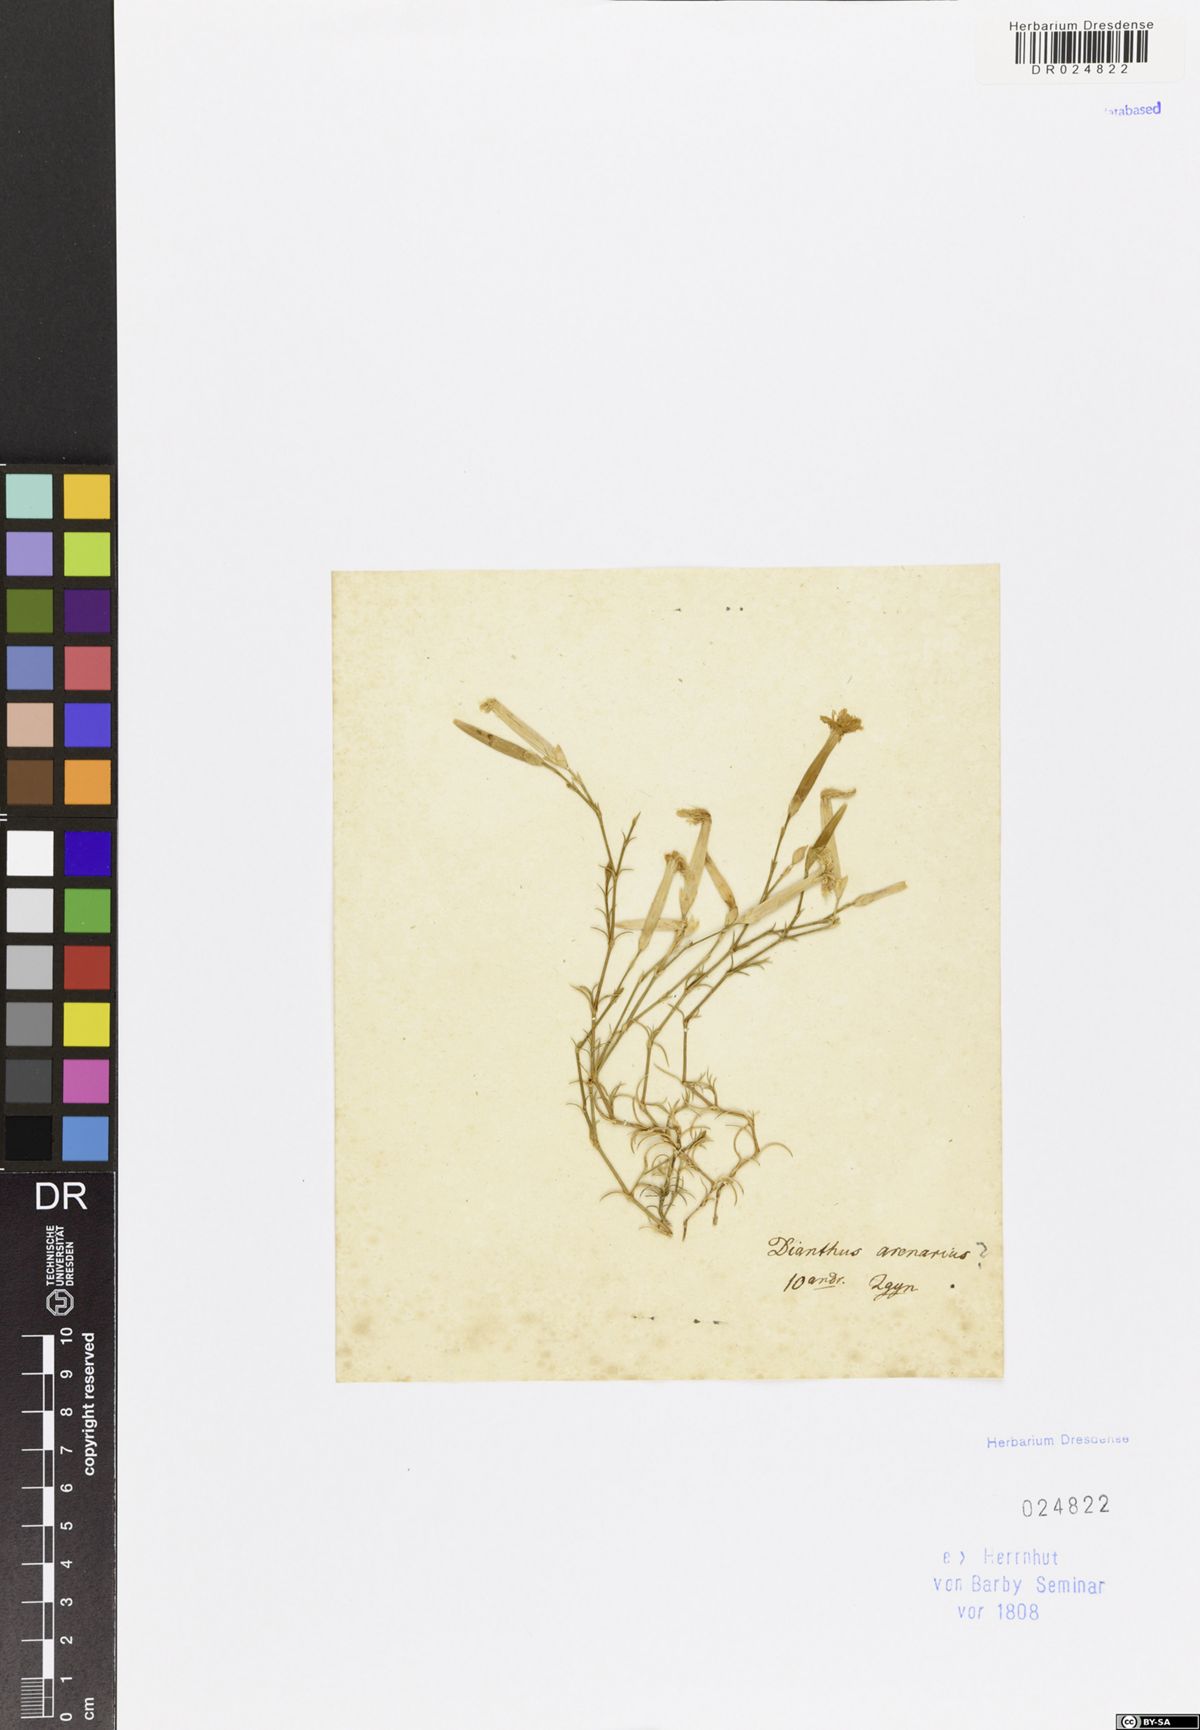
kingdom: Plantae
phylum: Tracheophyta
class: Magnoliopsida
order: Caryophyllales
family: Caryophyllaceae
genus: Dianthus
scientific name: Dianthus squarrosus
